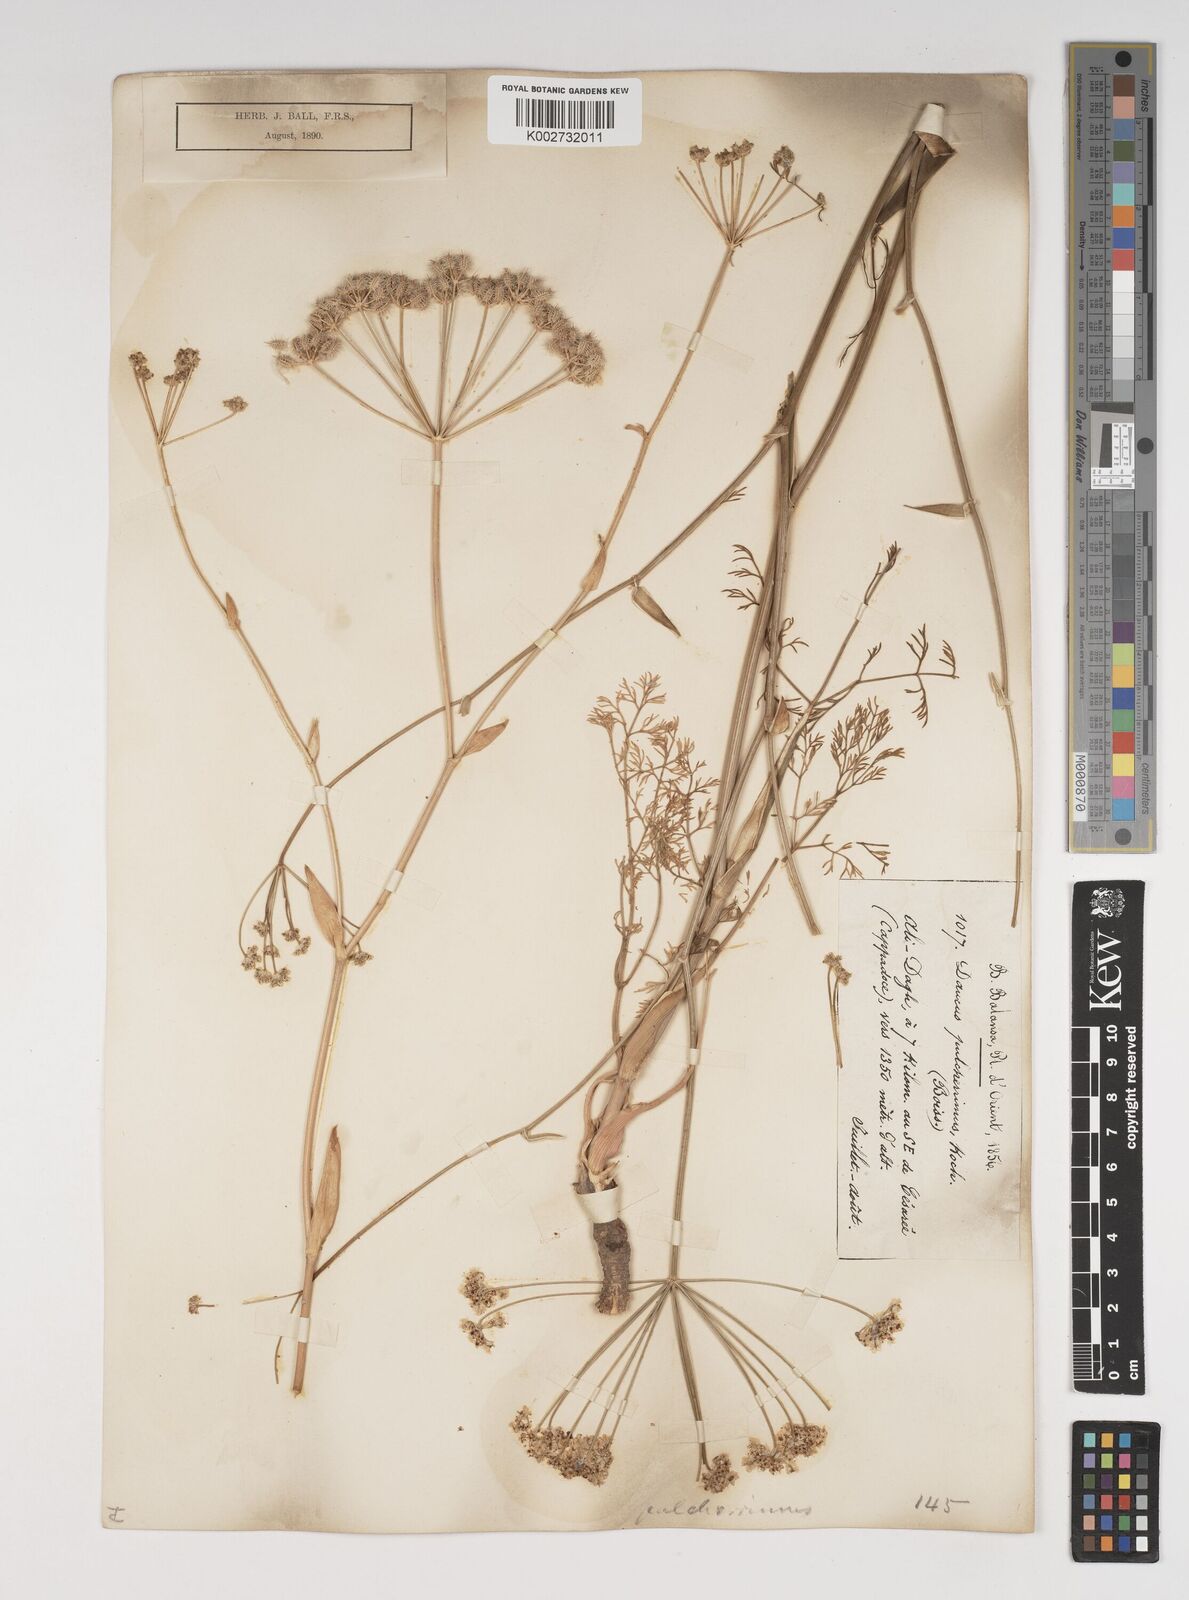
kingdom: Plantae
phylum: Tracheophyta
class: Magnoliopsida
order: Apiales
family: Apiaceae
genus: Astrodaucus
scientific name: Astrodaucus
